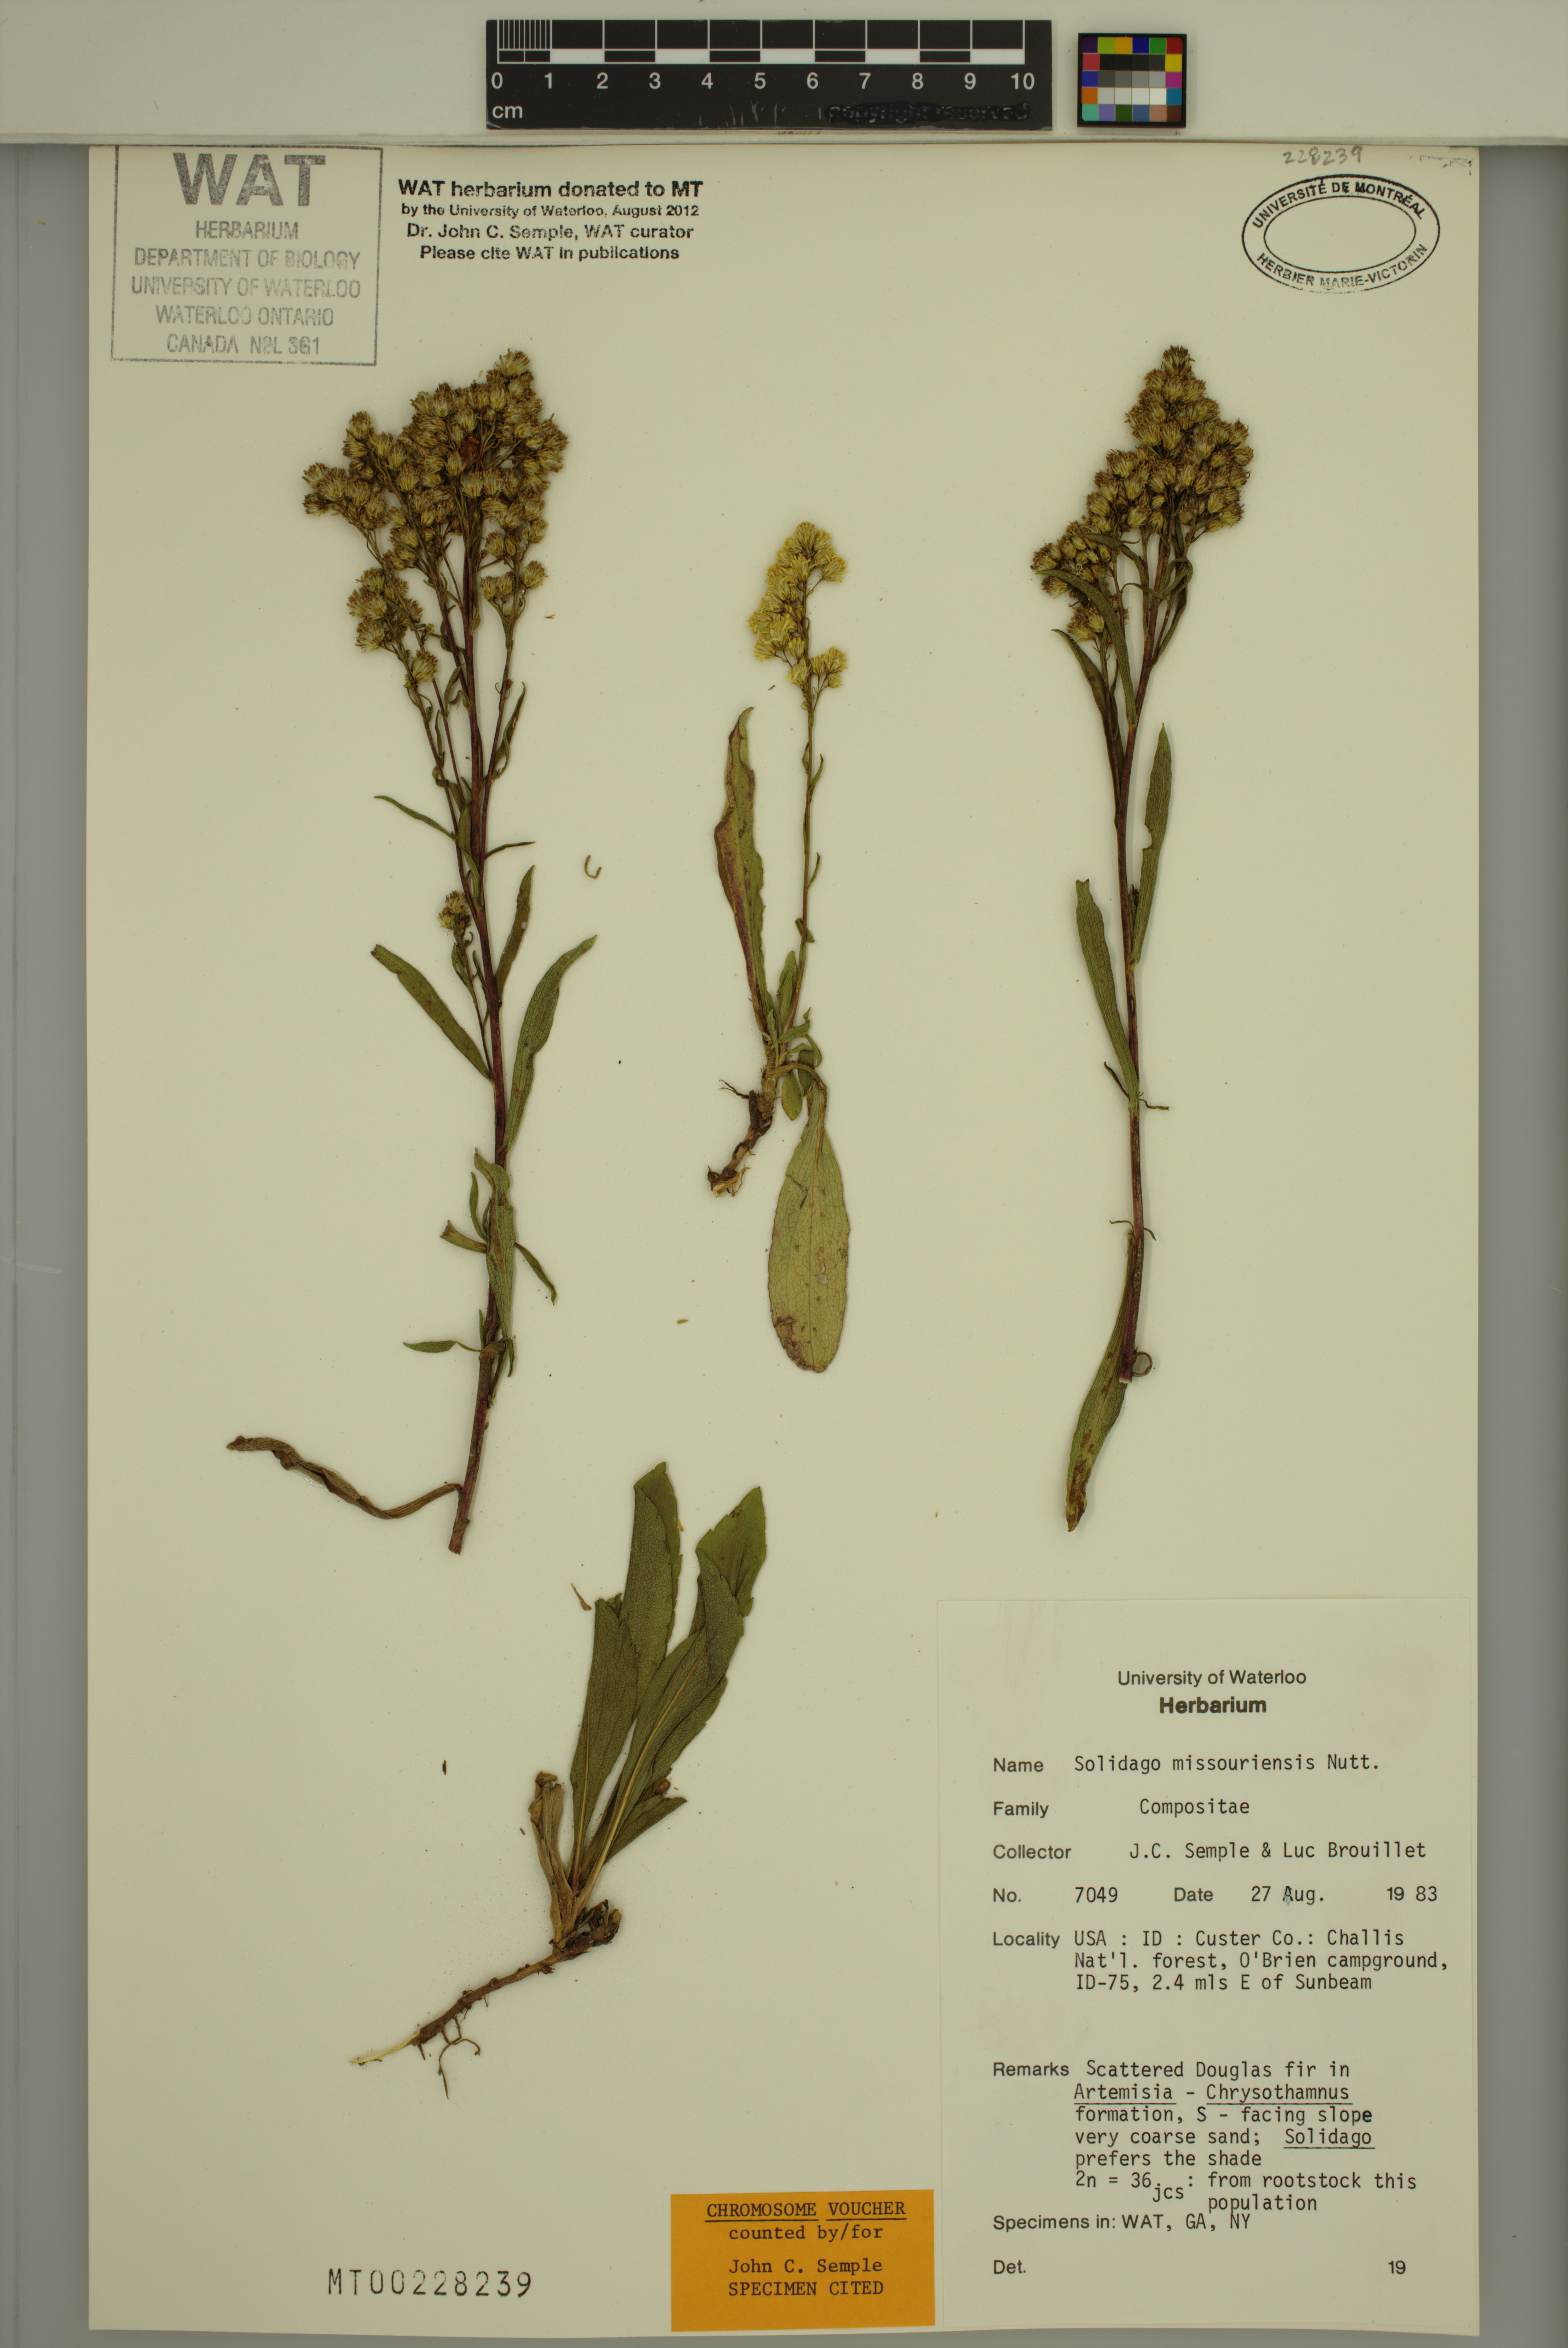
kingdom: Plantae
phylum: Tracheophyta
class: Magnoliopsida
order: Asterales
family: Asteraceae
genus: Solidago
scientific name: Solidago missouriensis
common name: Prairie goldenrod
